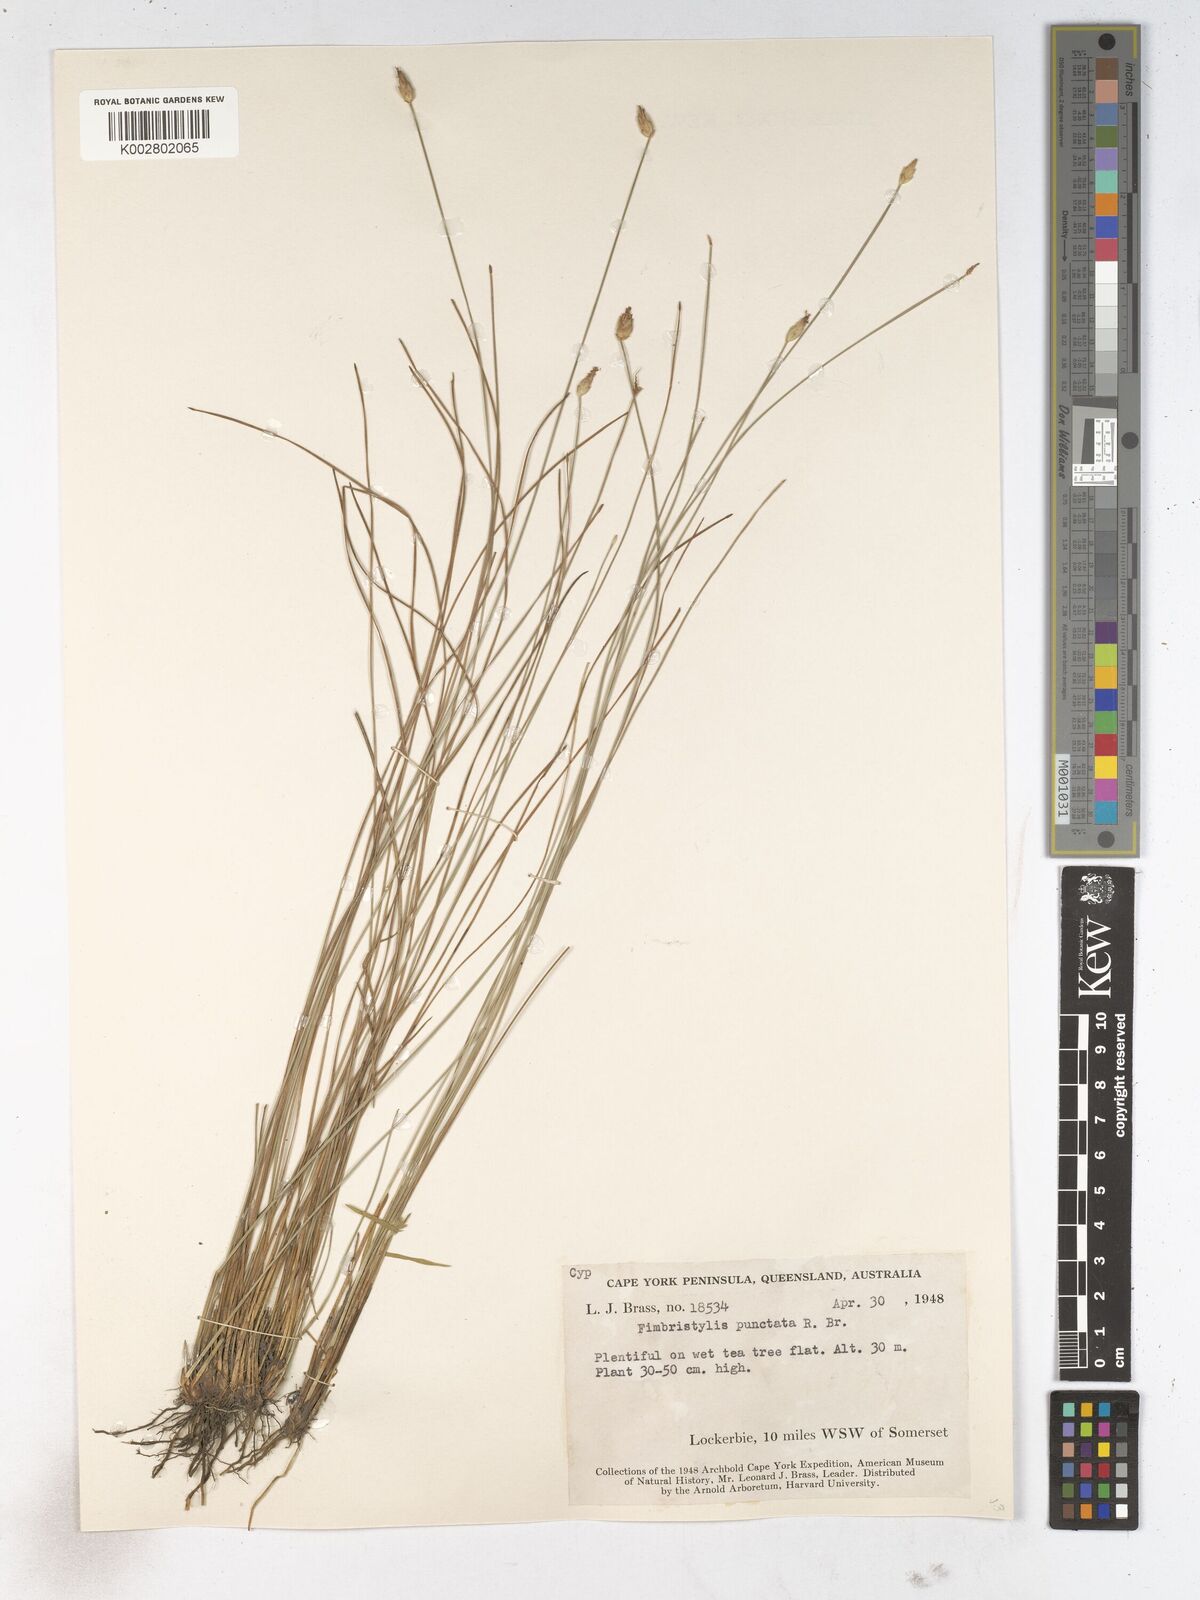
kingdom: Plantae
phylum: Tracheophyta
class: Liliopsida
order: Poales
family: Cyperaceae
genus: Fimbristylis
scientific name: Fimbristylis punctata
